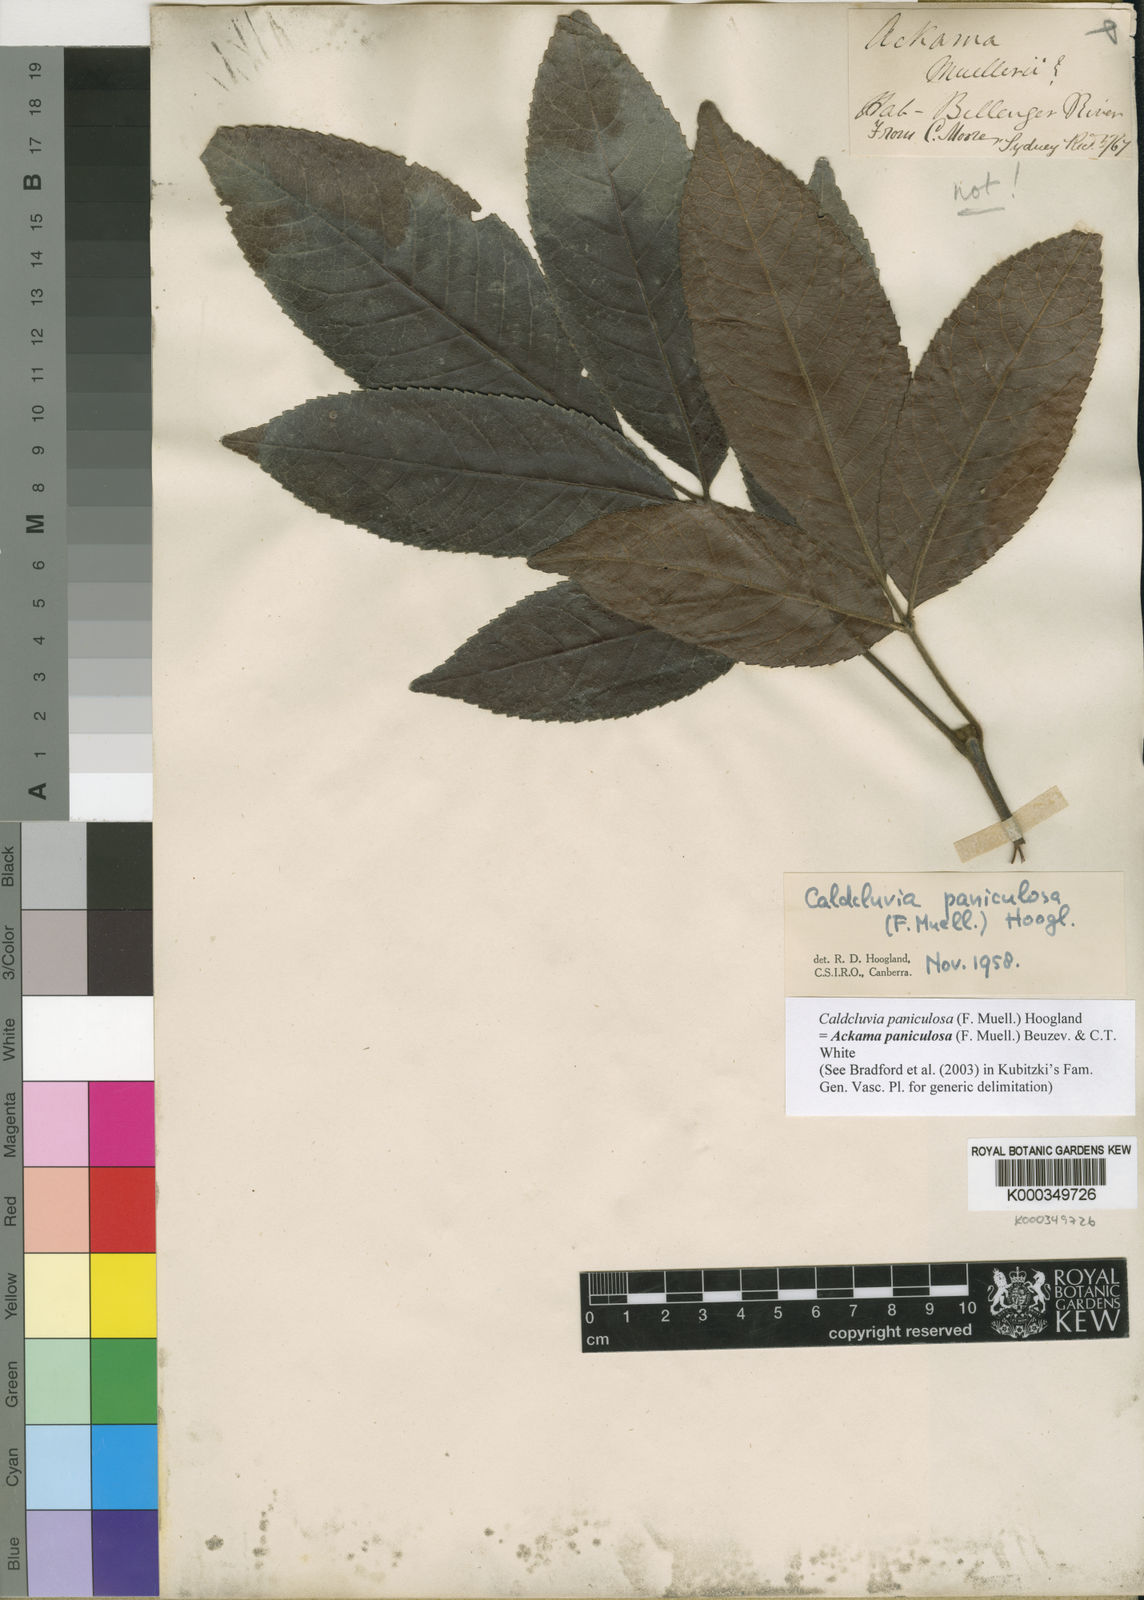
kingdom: Plantae
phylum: Tracheophyta
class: Magnoliopsida
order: Oxalidales
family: Cunoniaceae
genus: Ackama
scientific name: Ackama paniculosa
